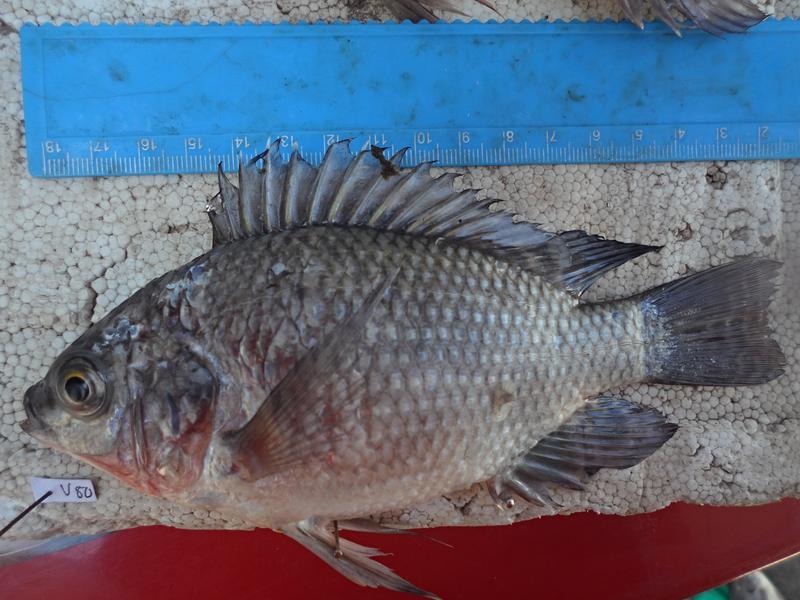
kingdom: Animalia
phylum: Chordata
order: Perciformes
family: Cichlidae
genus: Oreochromis
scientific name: Oreochromis niloticus
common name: Nile tilapia
